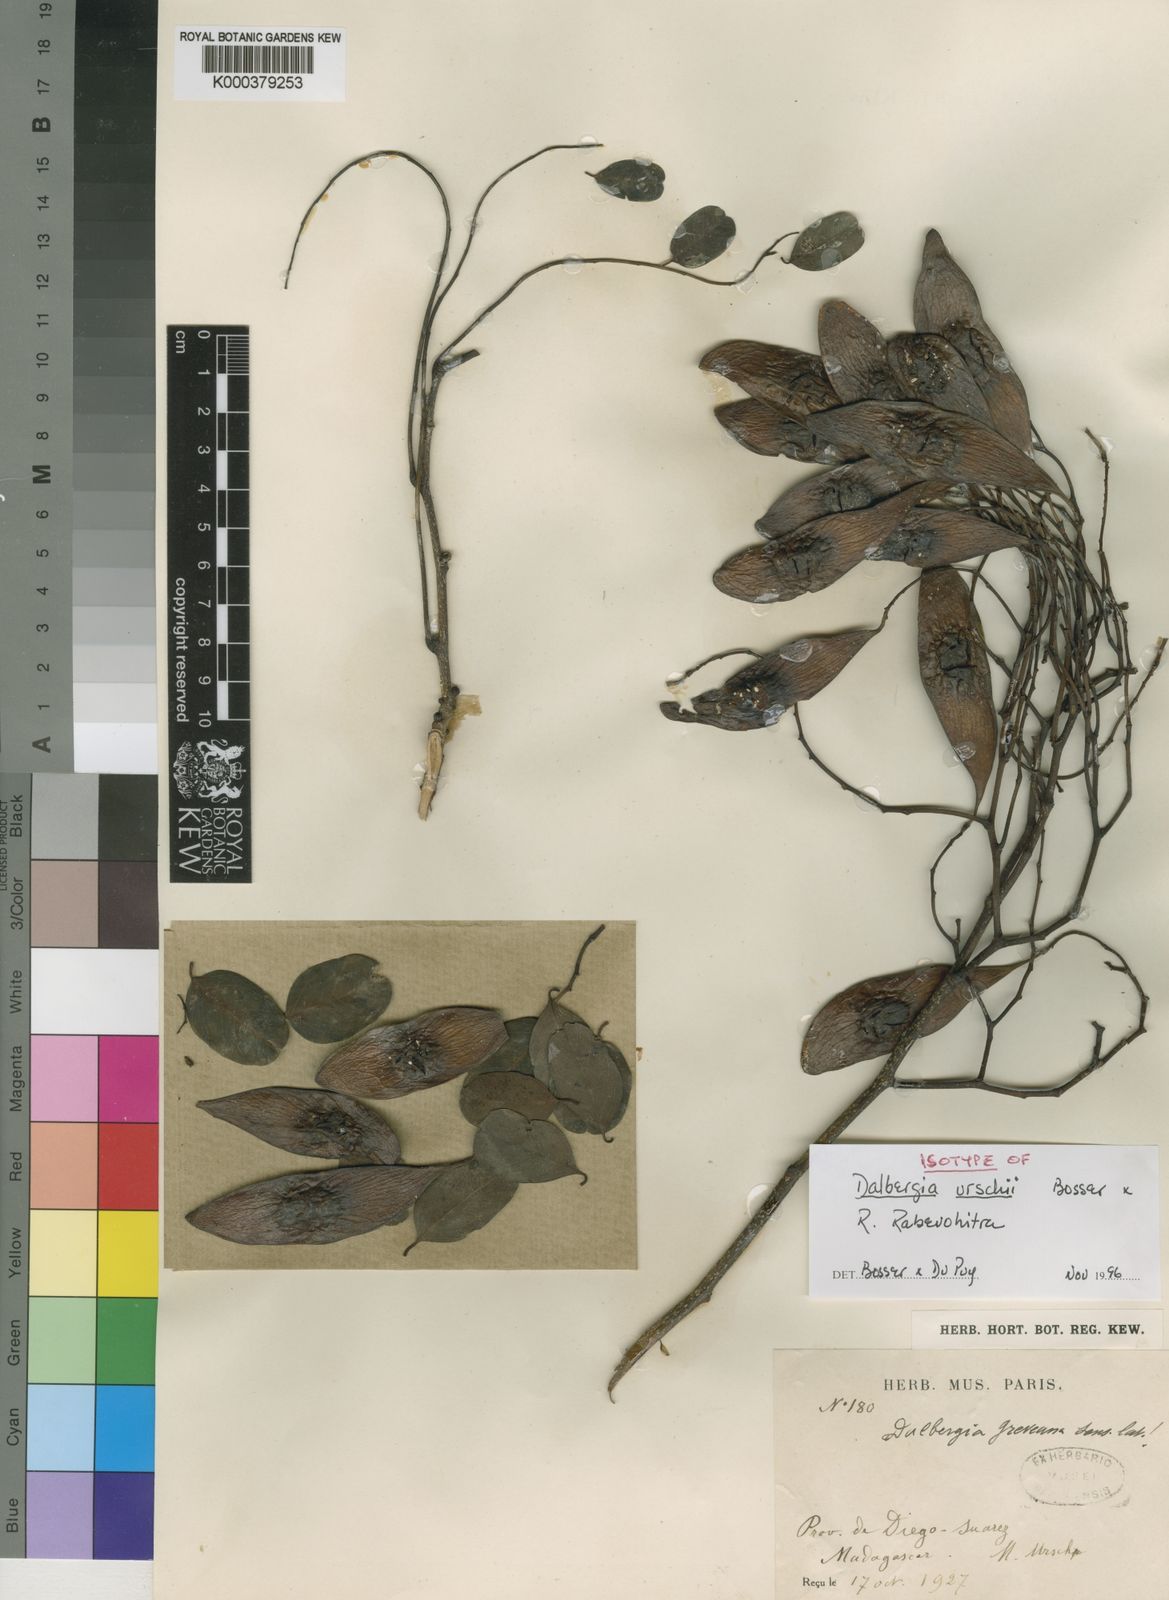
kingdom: Plantae
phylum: Tracheophyta
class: Magnoliopsida
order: Fabales
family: Fabaceae
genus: Dalbergia
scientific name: Dalbergia urschii
